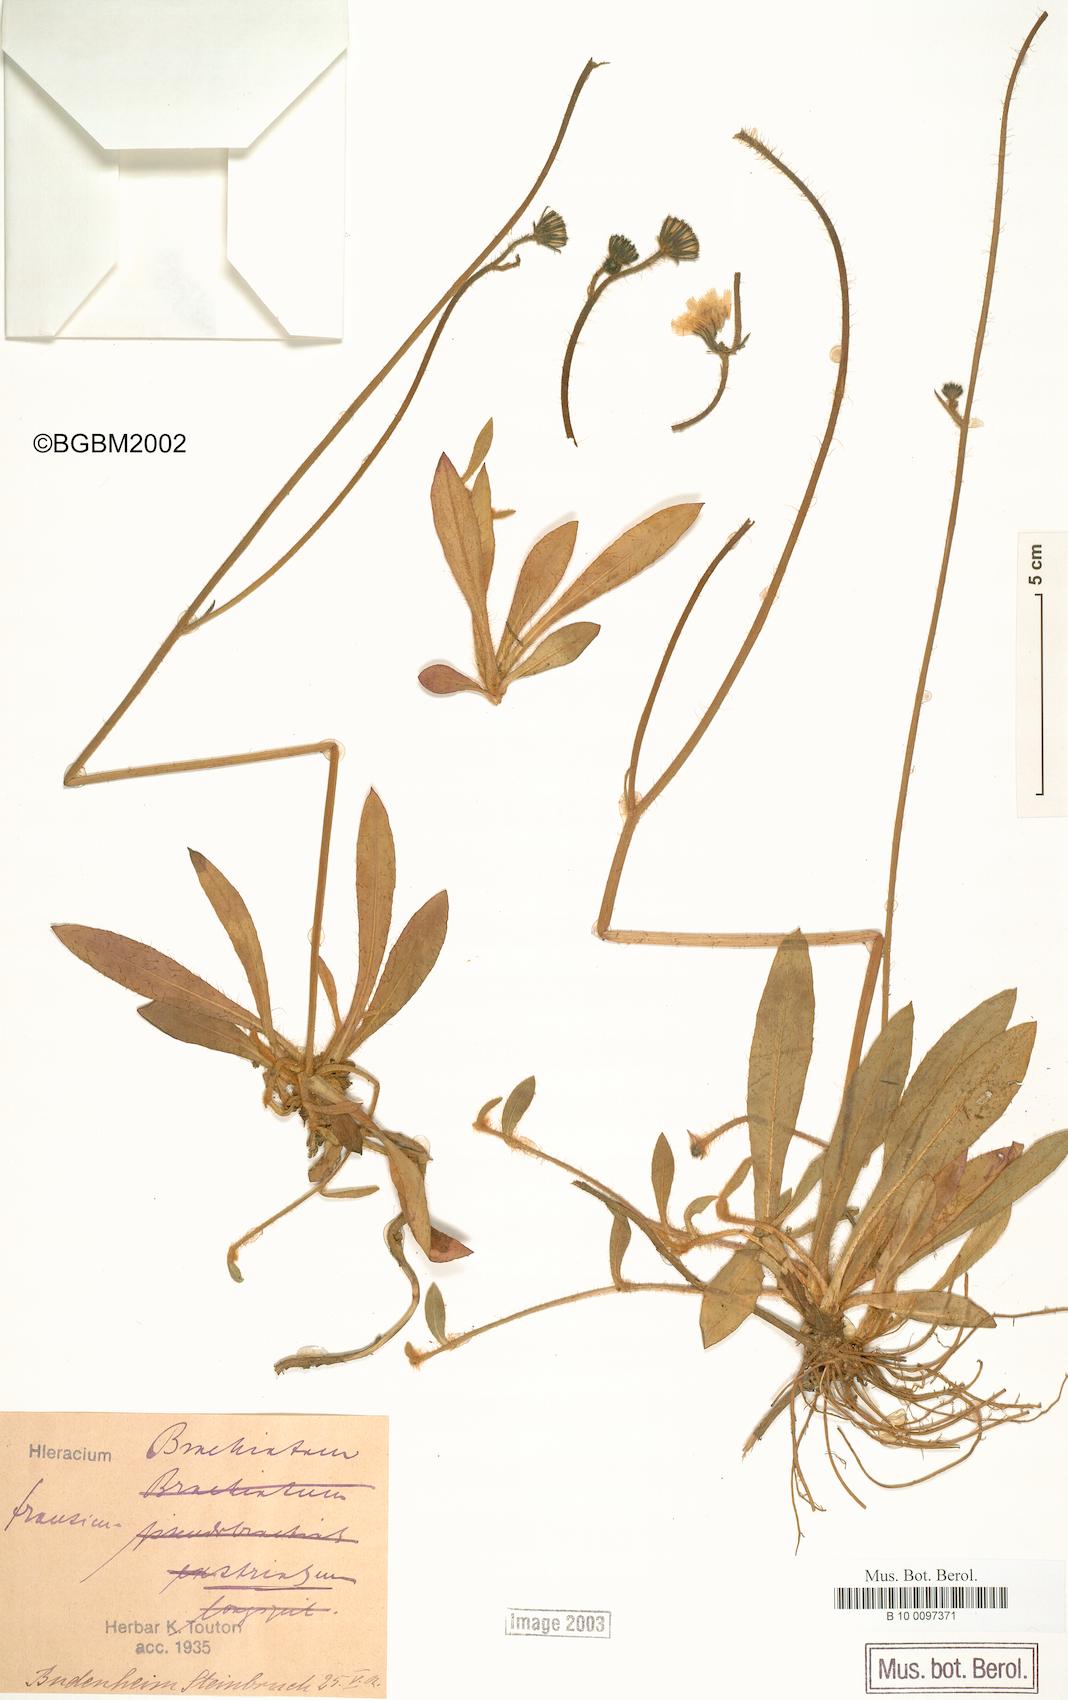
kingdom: Plantae
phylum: Tracheophyta
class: Magnoliopsida
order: Asterales
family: Asteraceae
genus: Pilosella
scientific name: Pilosella acutifolia
